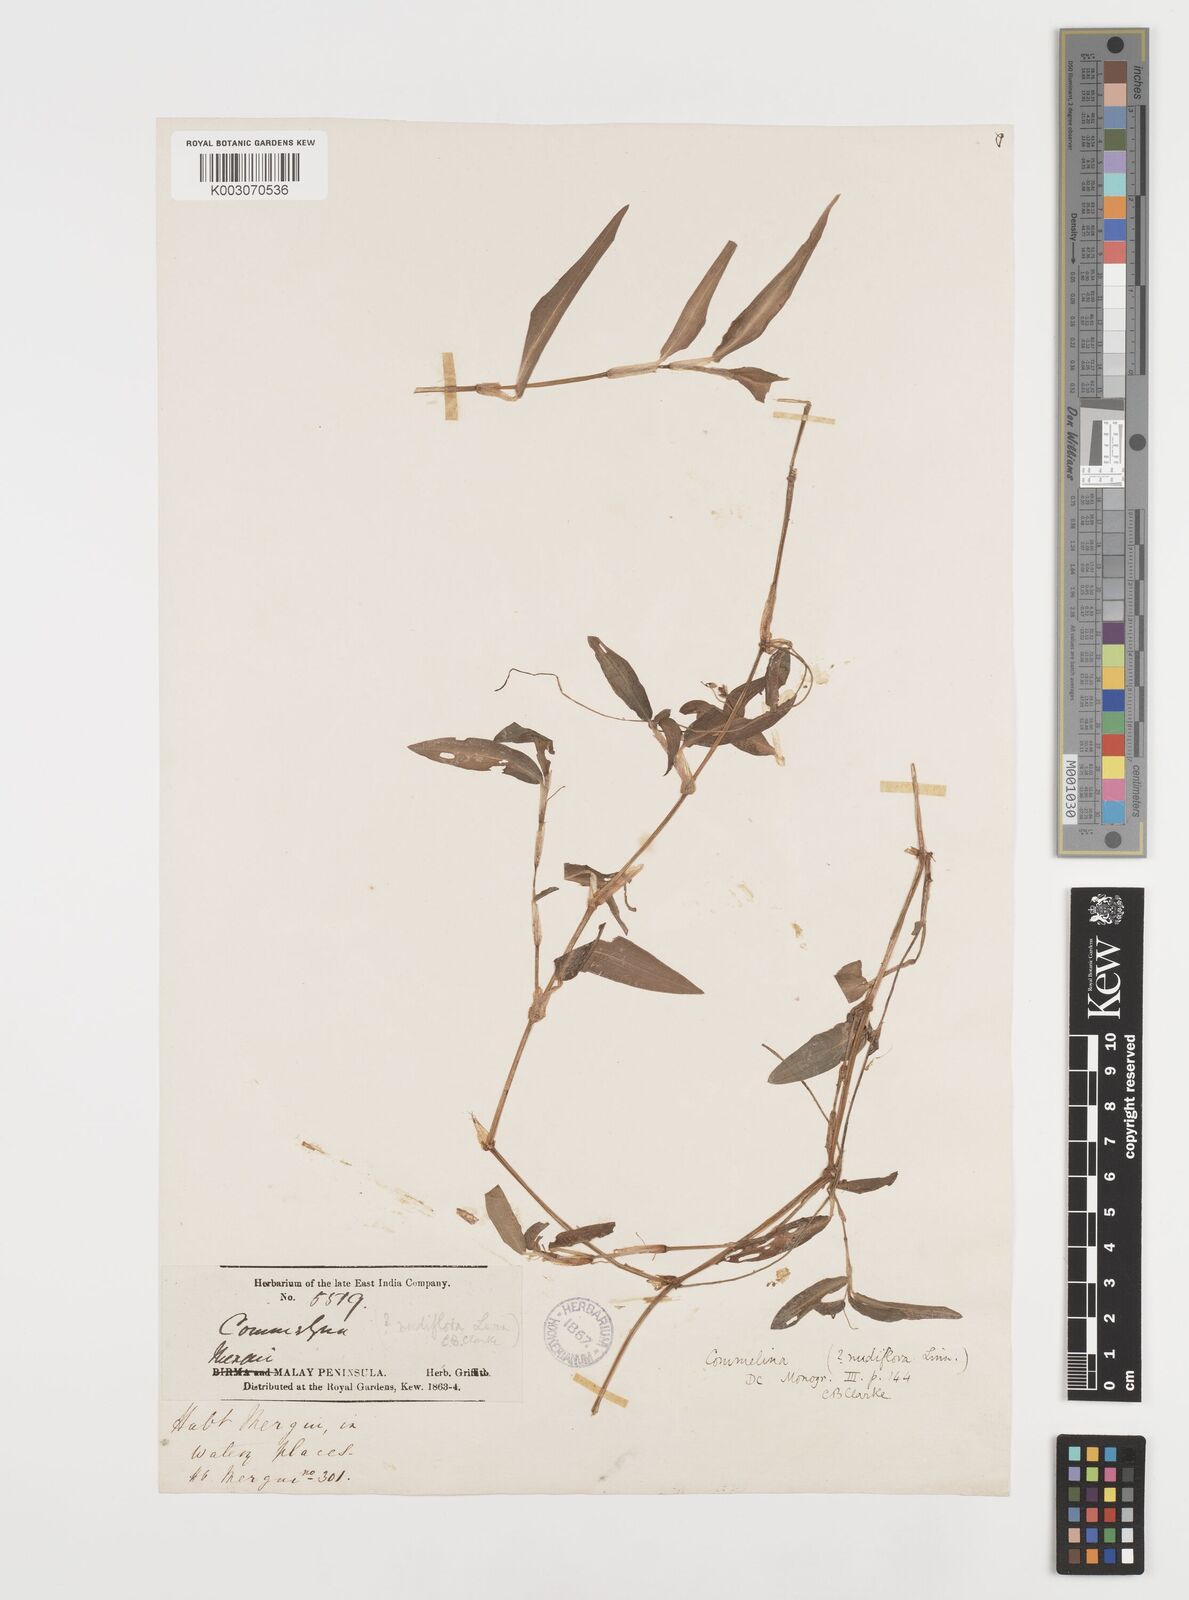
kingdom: Plantae
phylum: Tracheophyta
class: Liliopsida
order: Commelinales
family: Commelinaceae
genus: Commelina
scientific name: Commelina clavata
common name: Willow leaved dayflower
